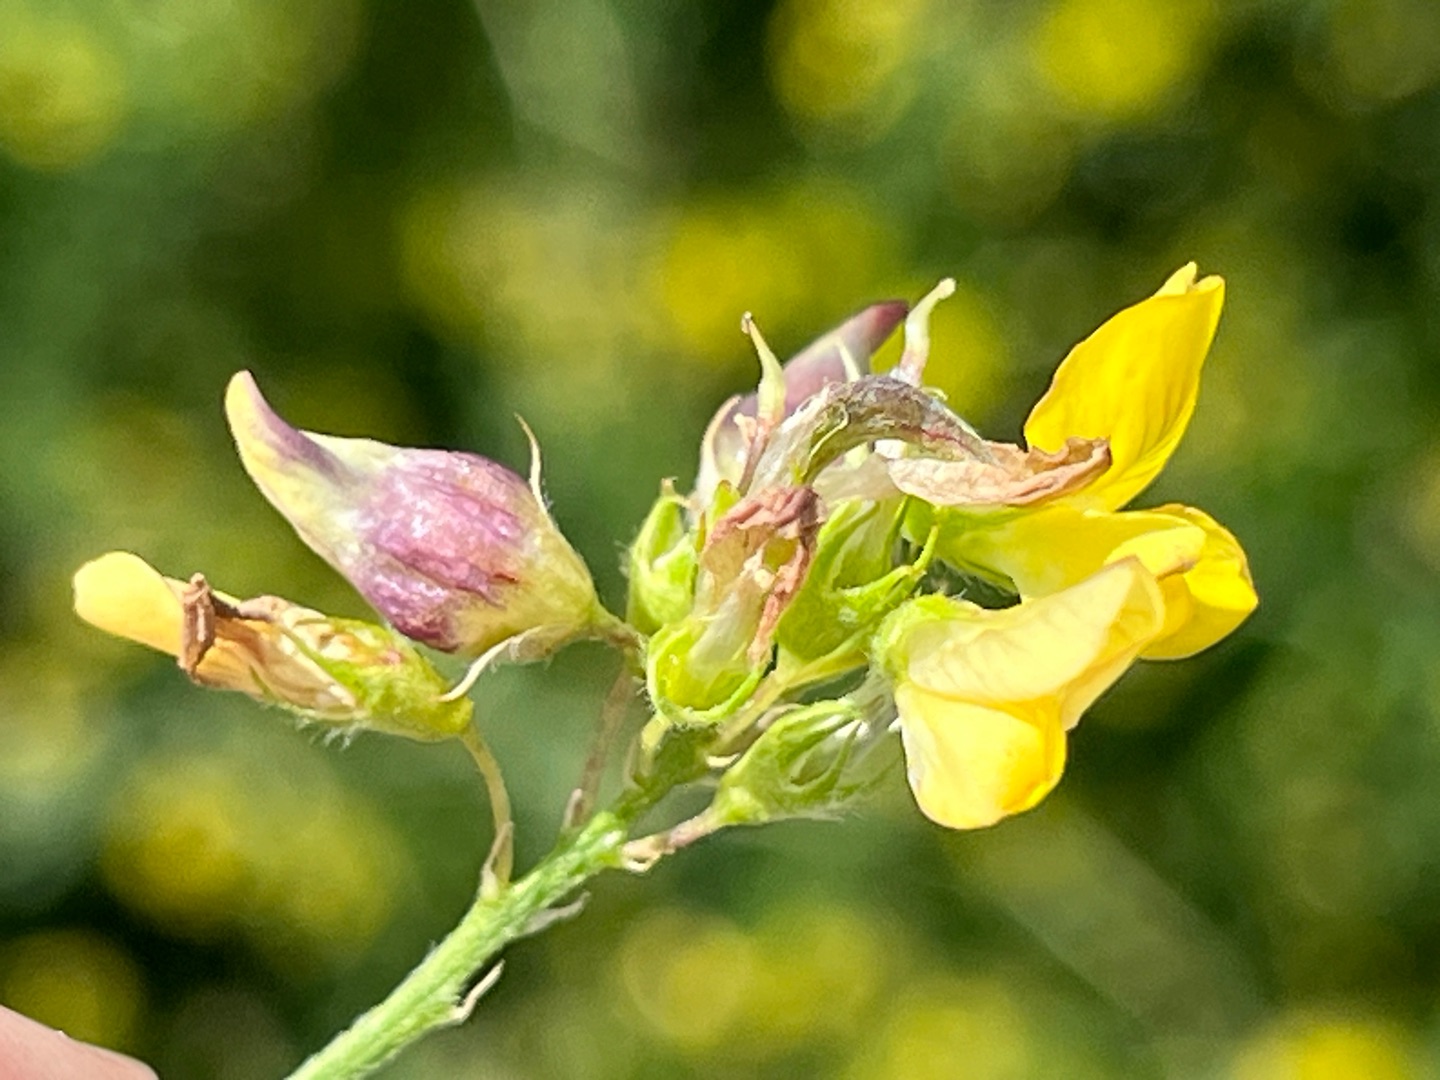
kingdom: Animalia
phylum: Arthropoda
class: Insecta
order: Diptera
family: Cecidomyiidae
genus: Contarinia
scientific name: Contarinia medicaginis
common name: Lucerneblomstgalmyg
